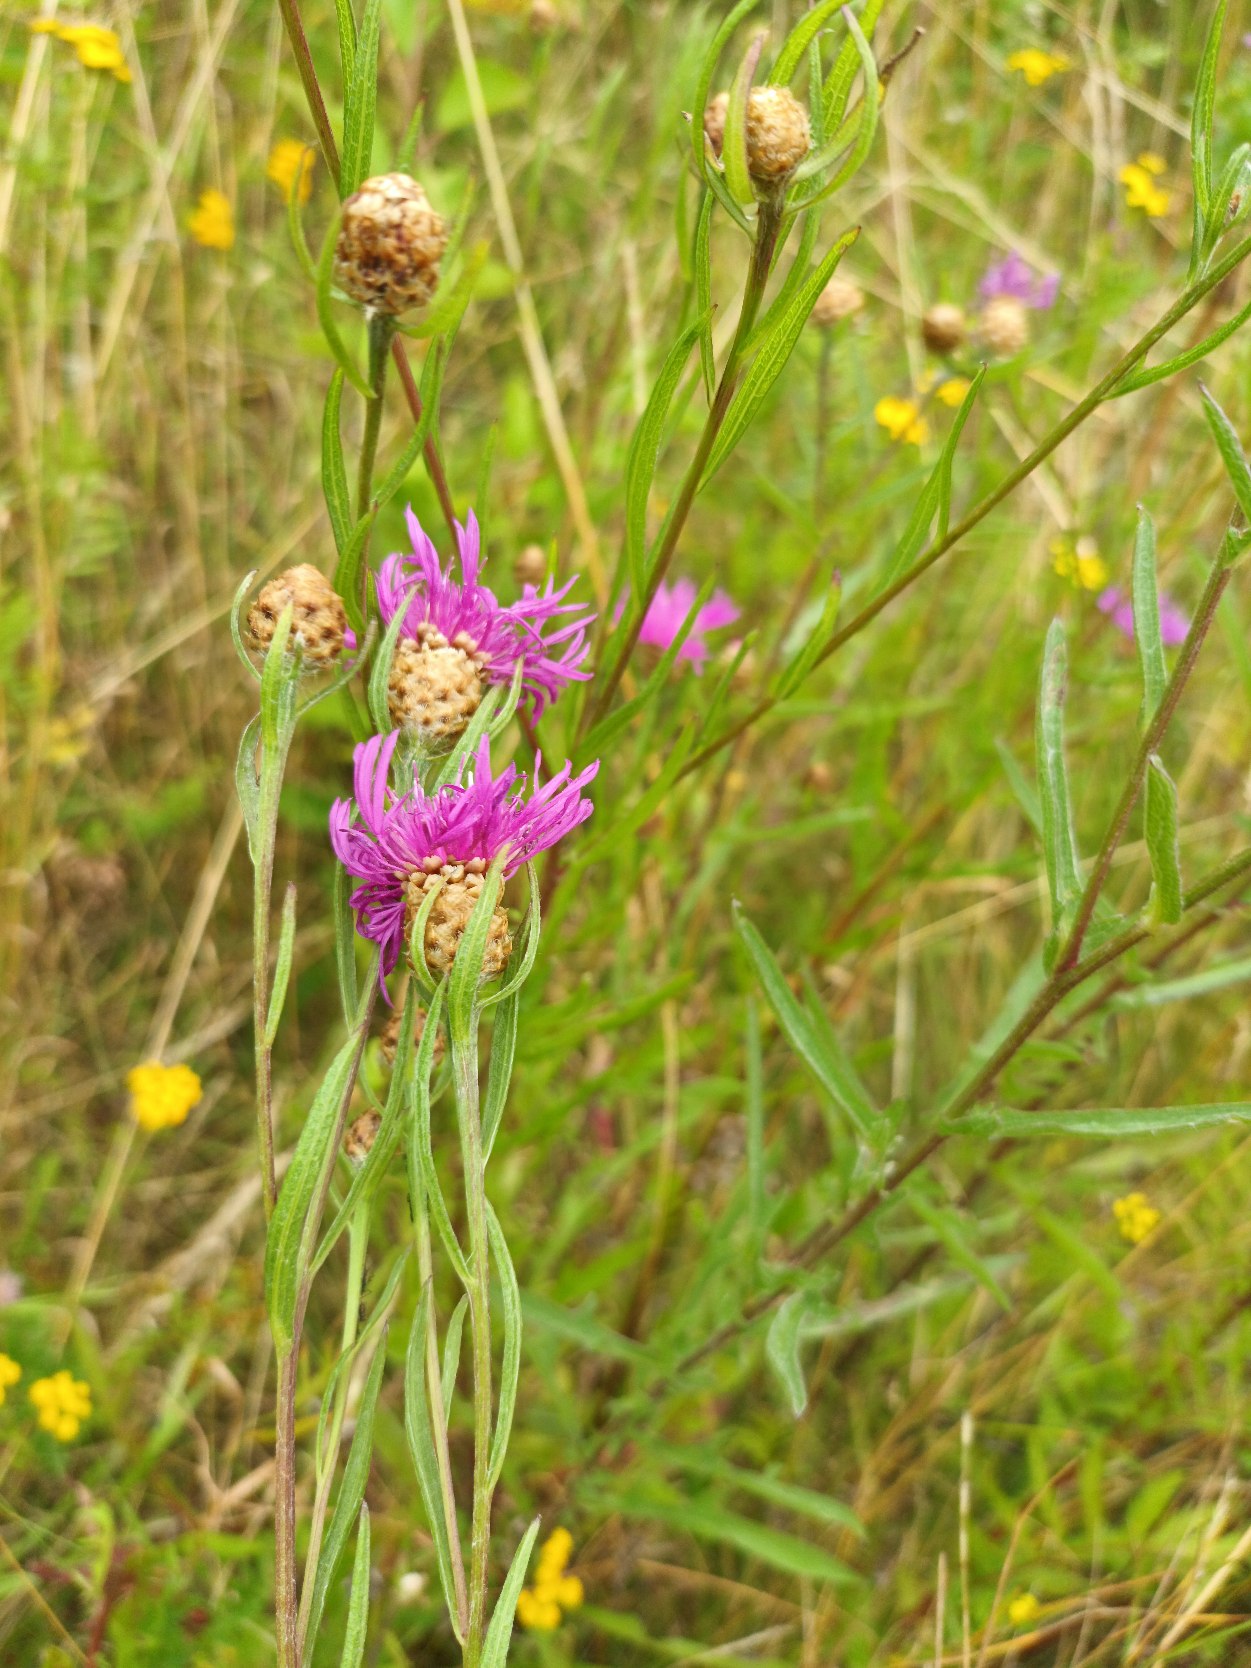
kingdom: Plantae
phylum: Tracheophyta
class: Magnoliopsida
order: Asterales
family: Asteraceae
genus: Centaurea
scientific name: Centaurea jacea
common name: Almindelig knopurt
